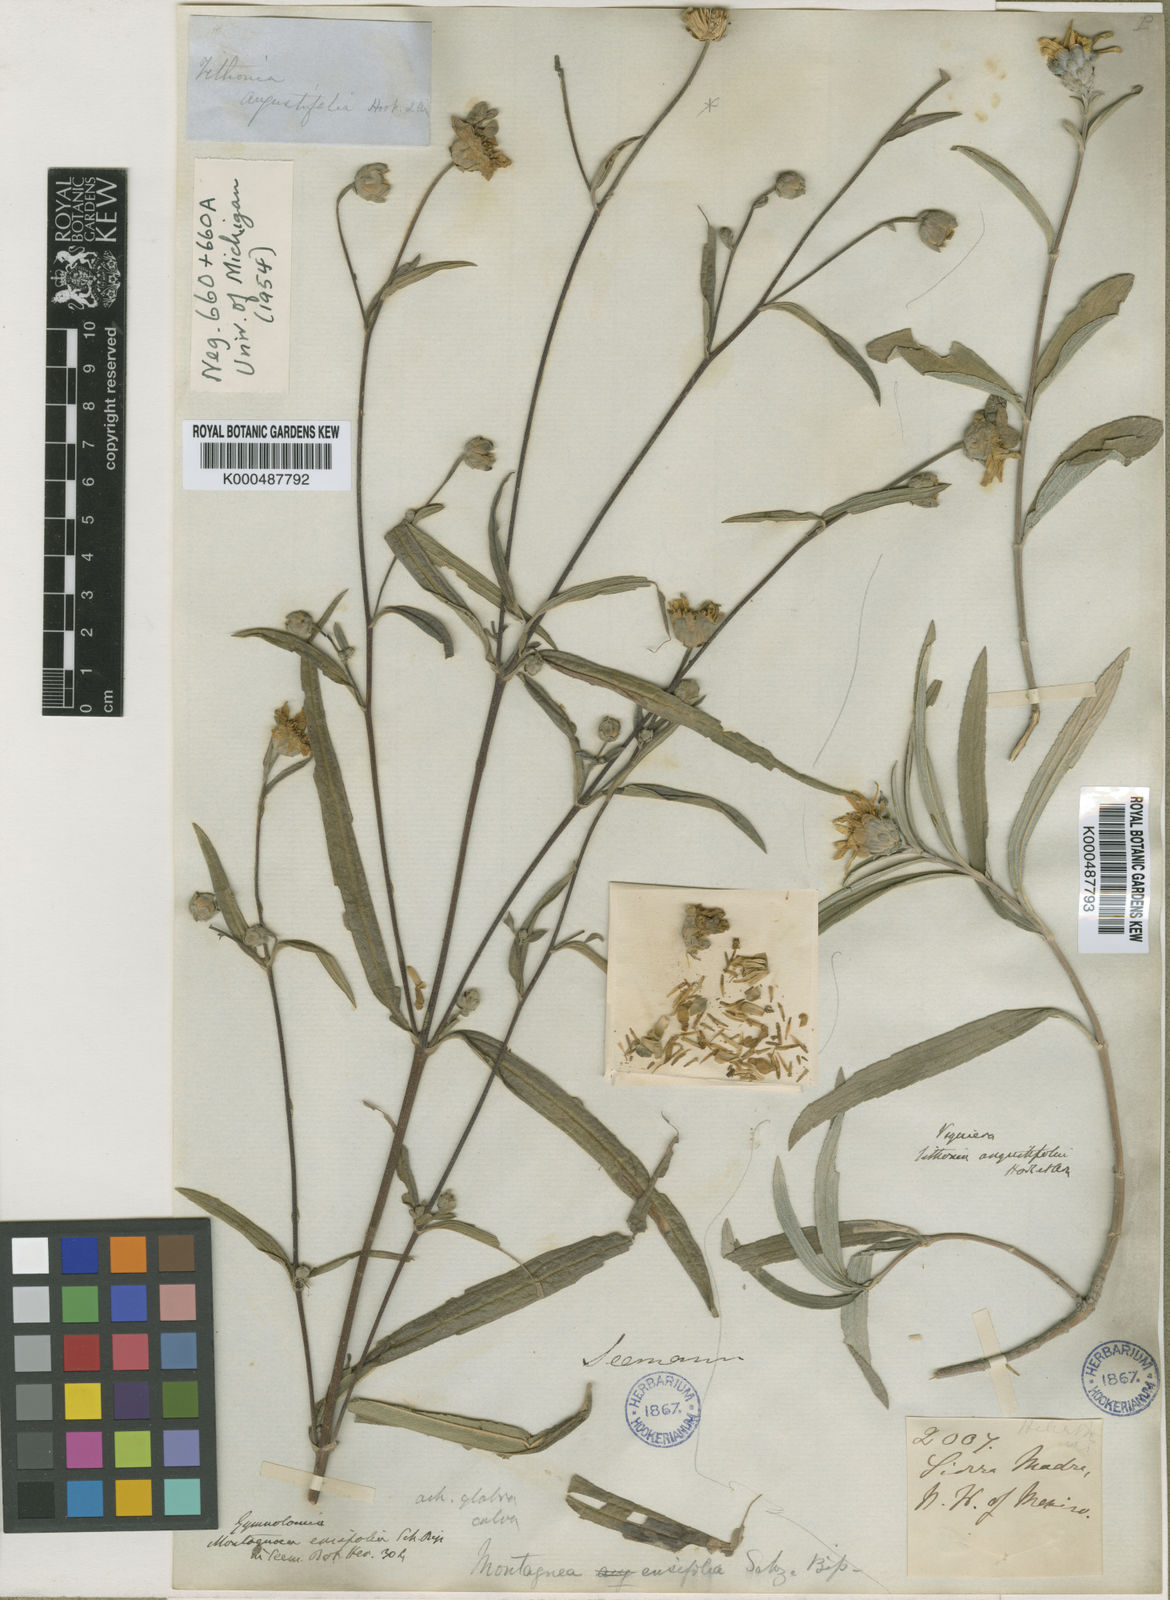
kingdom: Plantae
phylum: Tracheophyta
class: Magnoliopsida
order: Asterales
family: Asteraceae
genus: Aldama
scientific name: Aldama ensifolia
